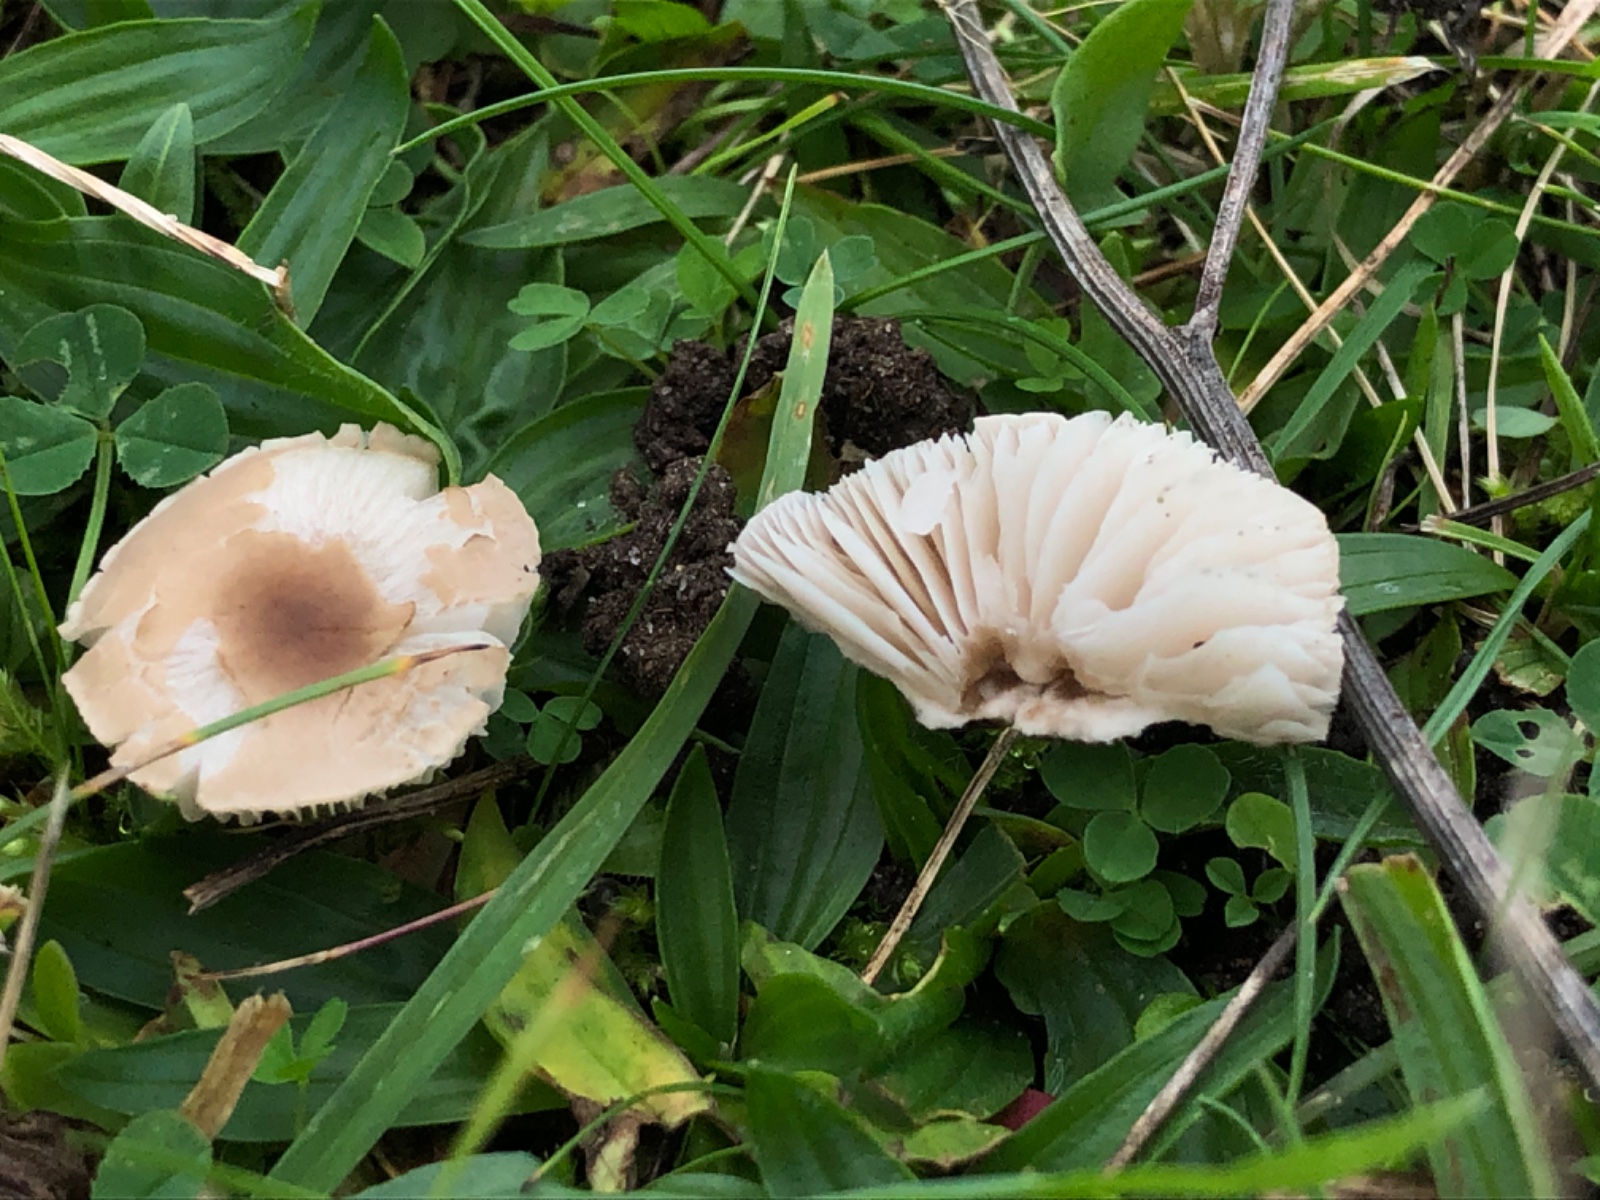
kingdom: Fungi
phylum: Basidiomycota
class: Agaricomycetes
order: Agaricales
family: Tricholomataceae
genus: Dermoloma
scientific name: Dermoloma cuneifolium
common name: eng-nonnehat
